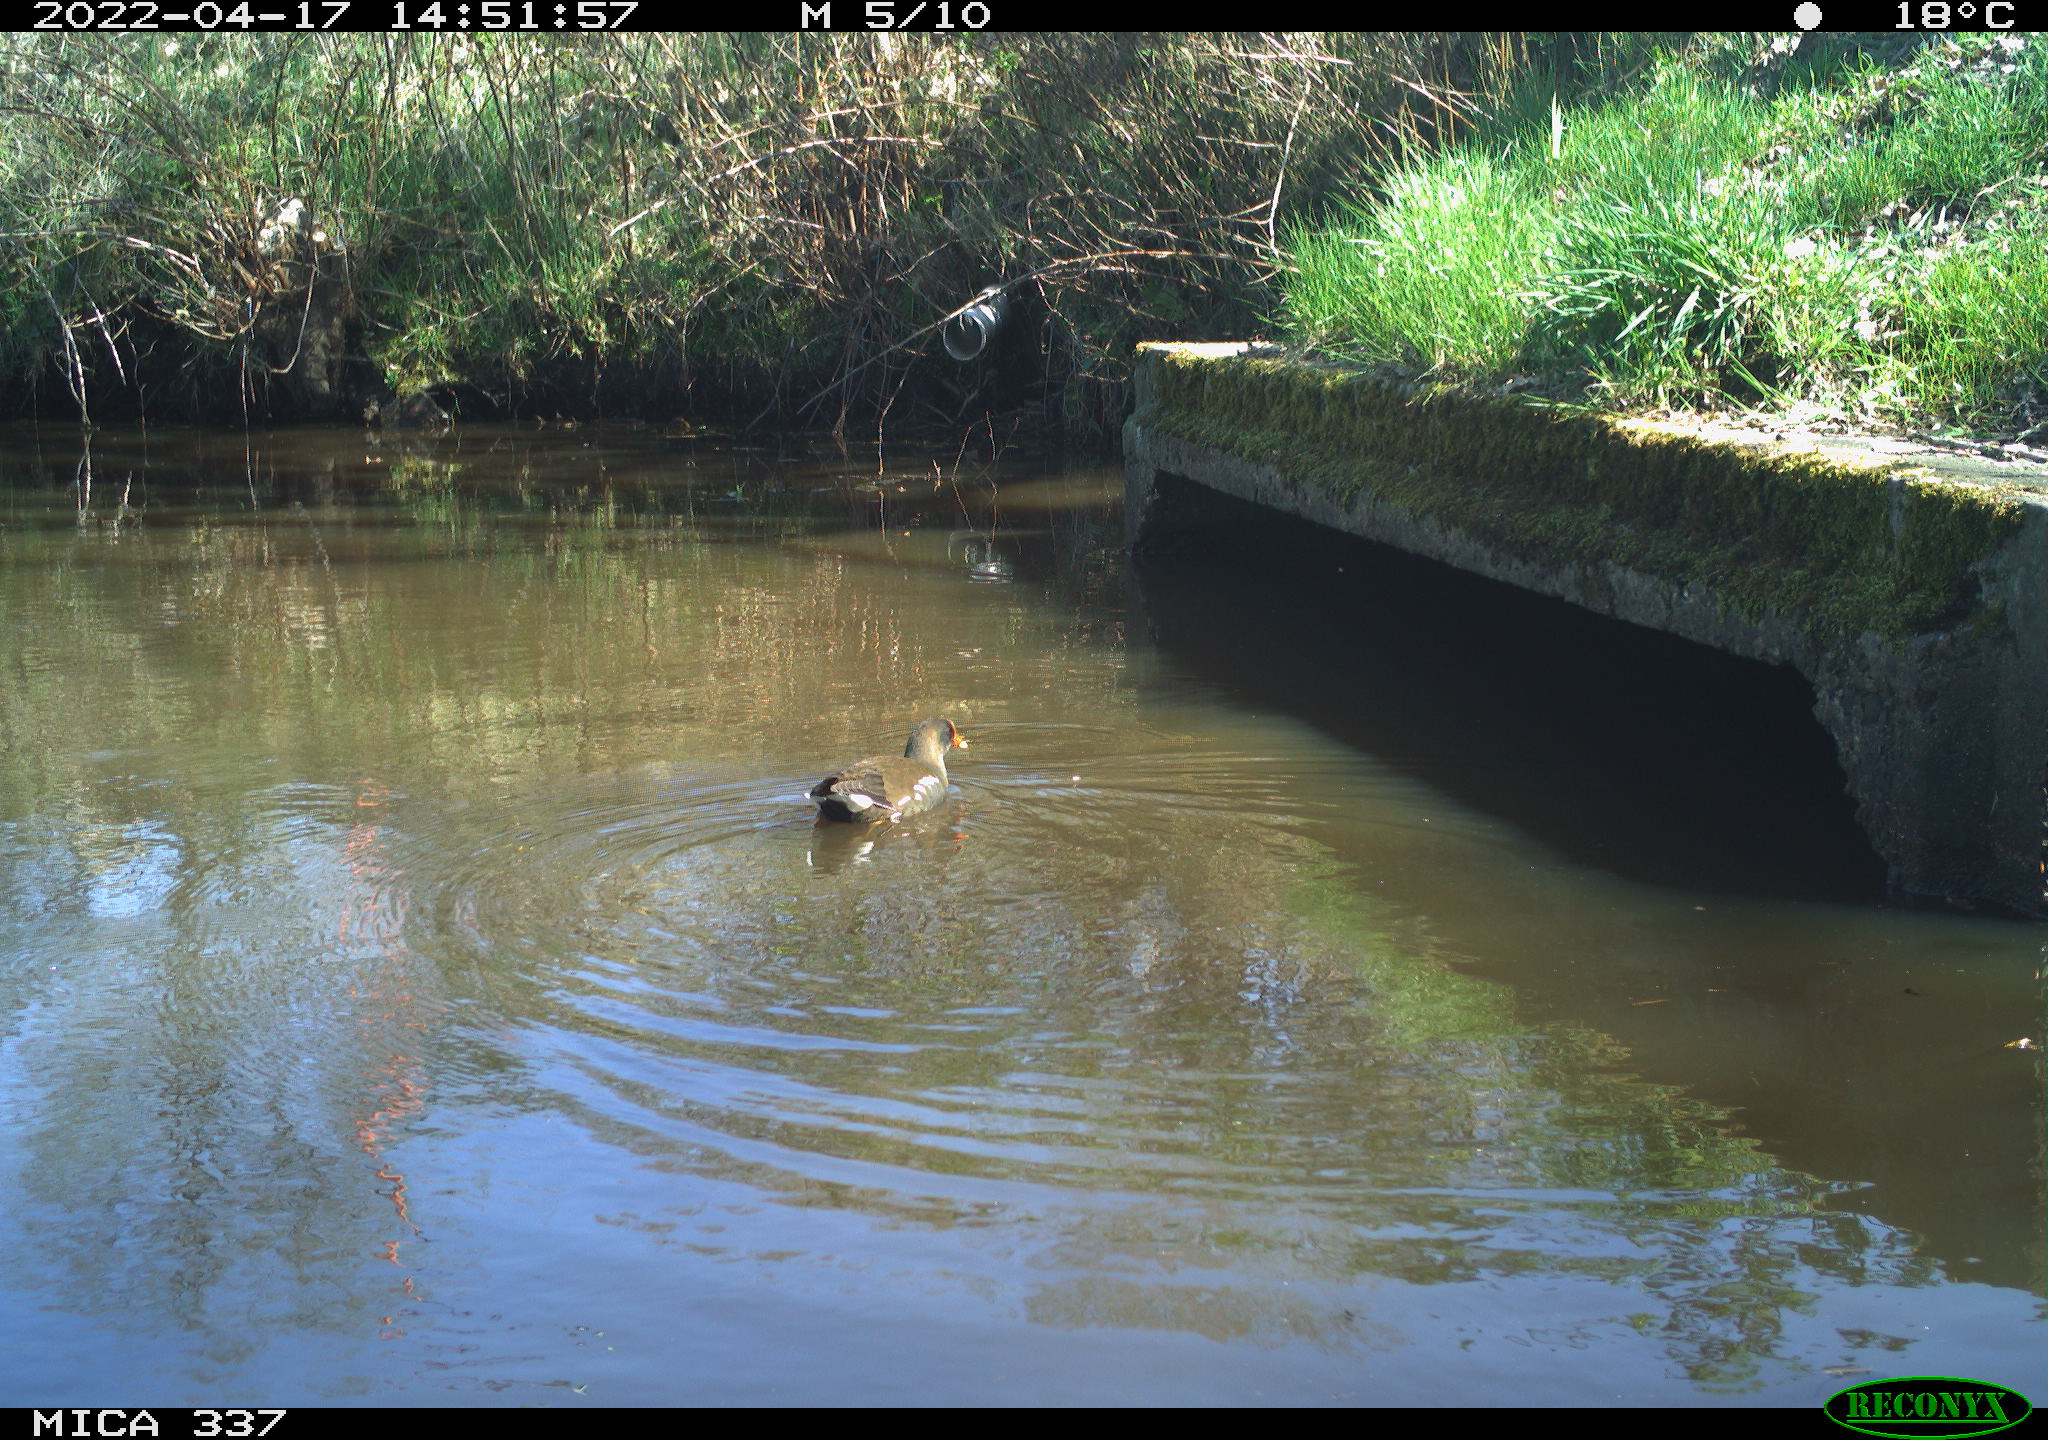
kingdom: Animalia
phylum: Chordata
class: Aves
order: Gruiformes
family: Rallidae
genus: Gallinula
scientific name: Gallinula chloropus
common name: Common moorhen
